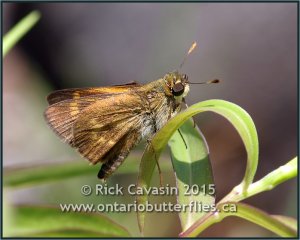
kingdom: Animalia
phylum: Arthropoda
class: Insecta
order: Lepidoptera
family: Hesperiidae
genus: Wallengrenia
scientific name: Wallengrenia otho
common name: Southern Broken-Dash
